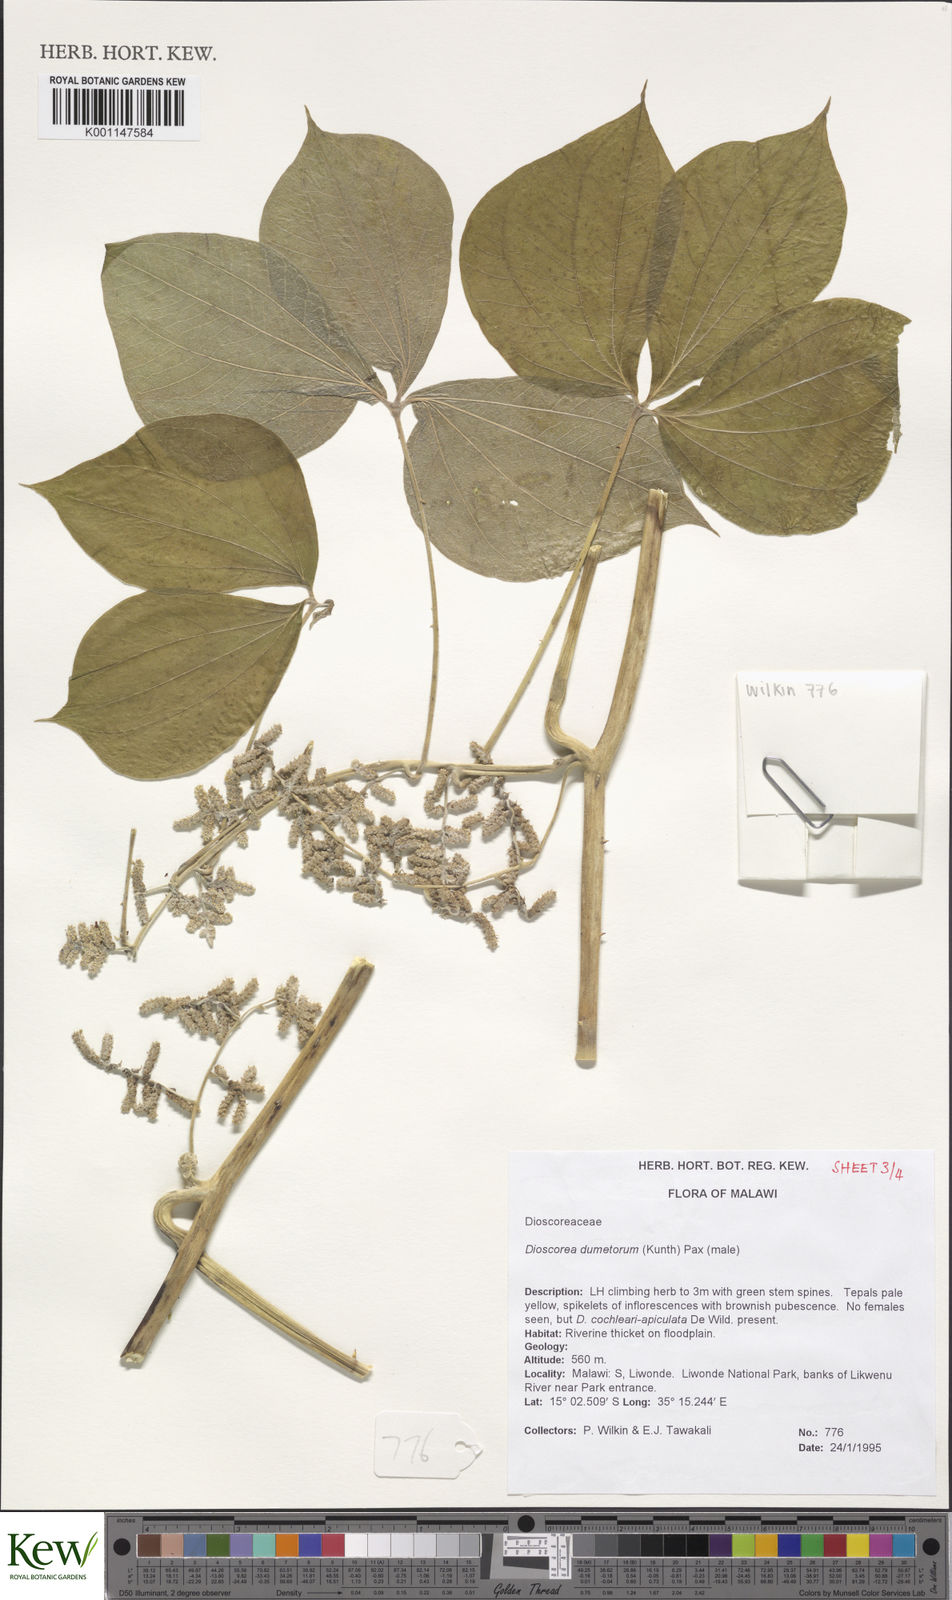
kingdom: Plantae
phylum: Tracheophyta
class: Liliopsida
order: Dioscoreales
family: Dioscoreaceae
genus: Dioscorea
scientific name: Dioscorea dumetorum
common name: African bitter yam
